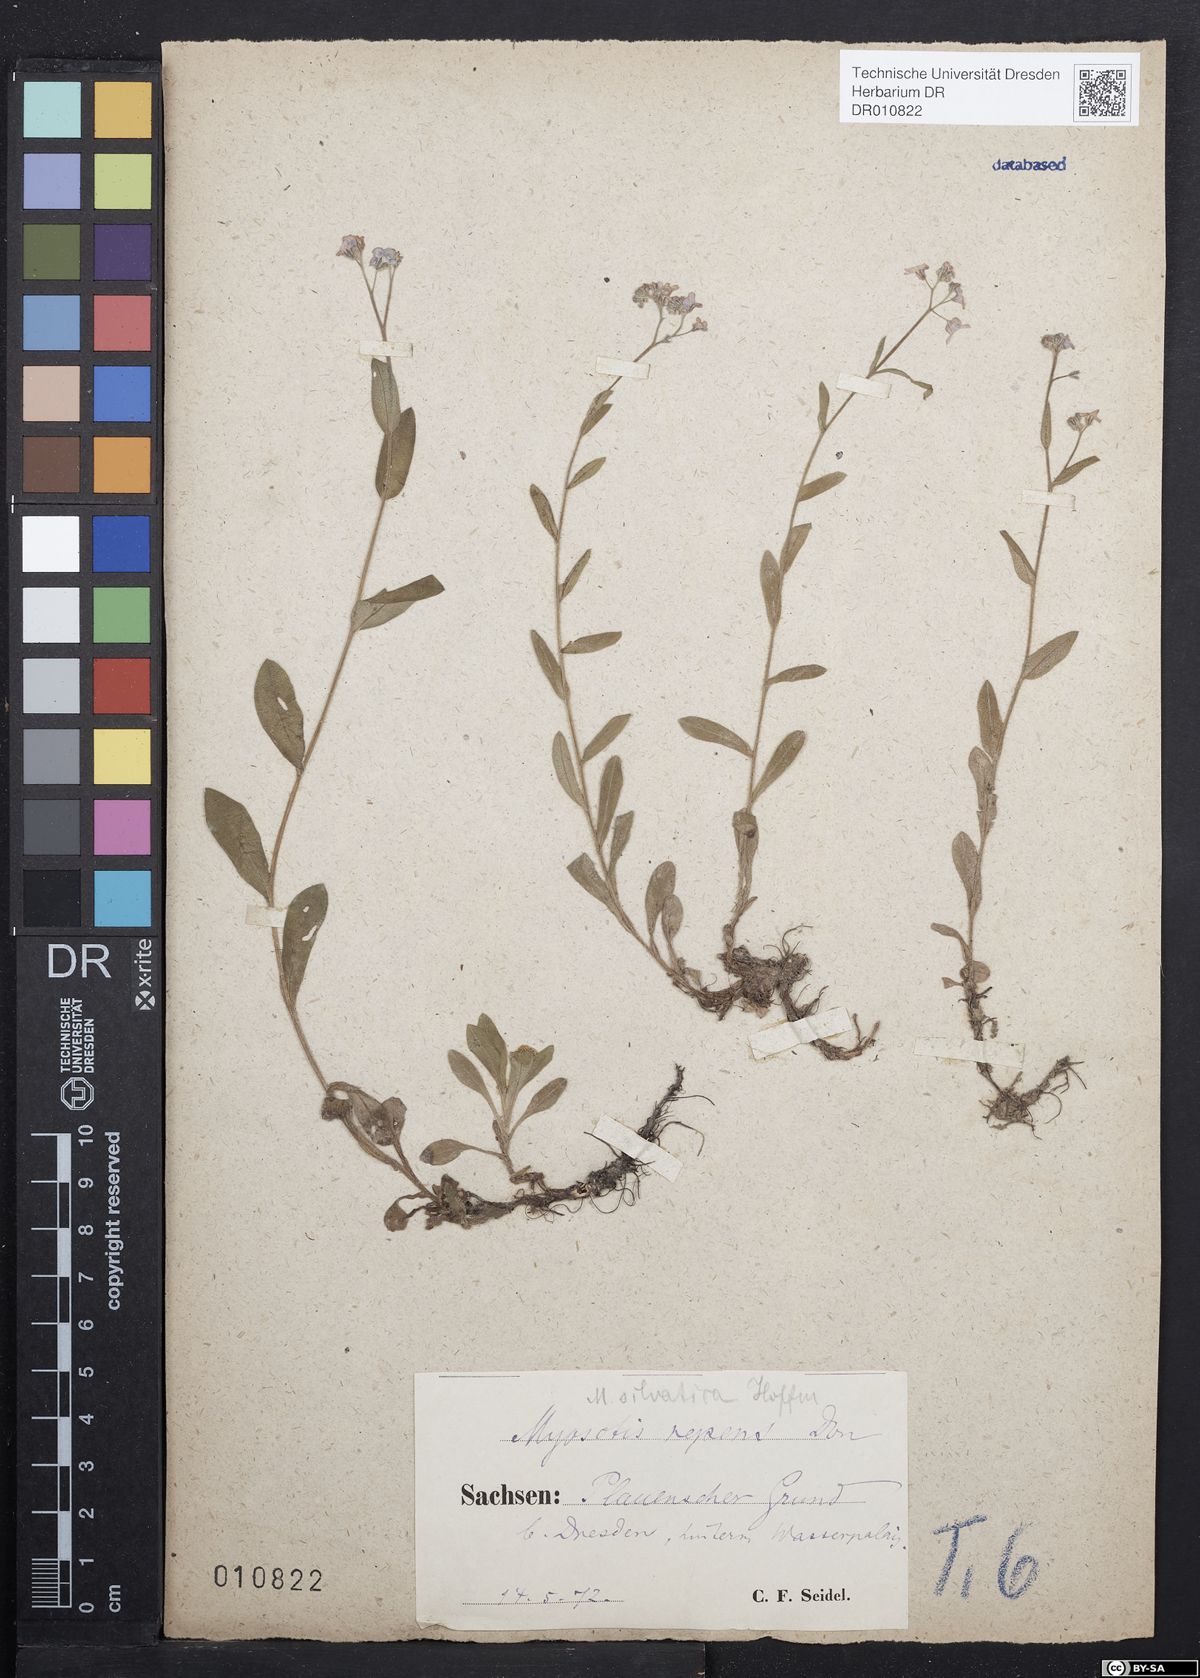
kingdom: Plantae
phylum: Tracheophyta
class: Magnoliopsida
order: Boraginales
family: Boraginaceae
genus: Myosotis
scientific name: Myosotis sylvatica
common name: Wood forget-me-not
